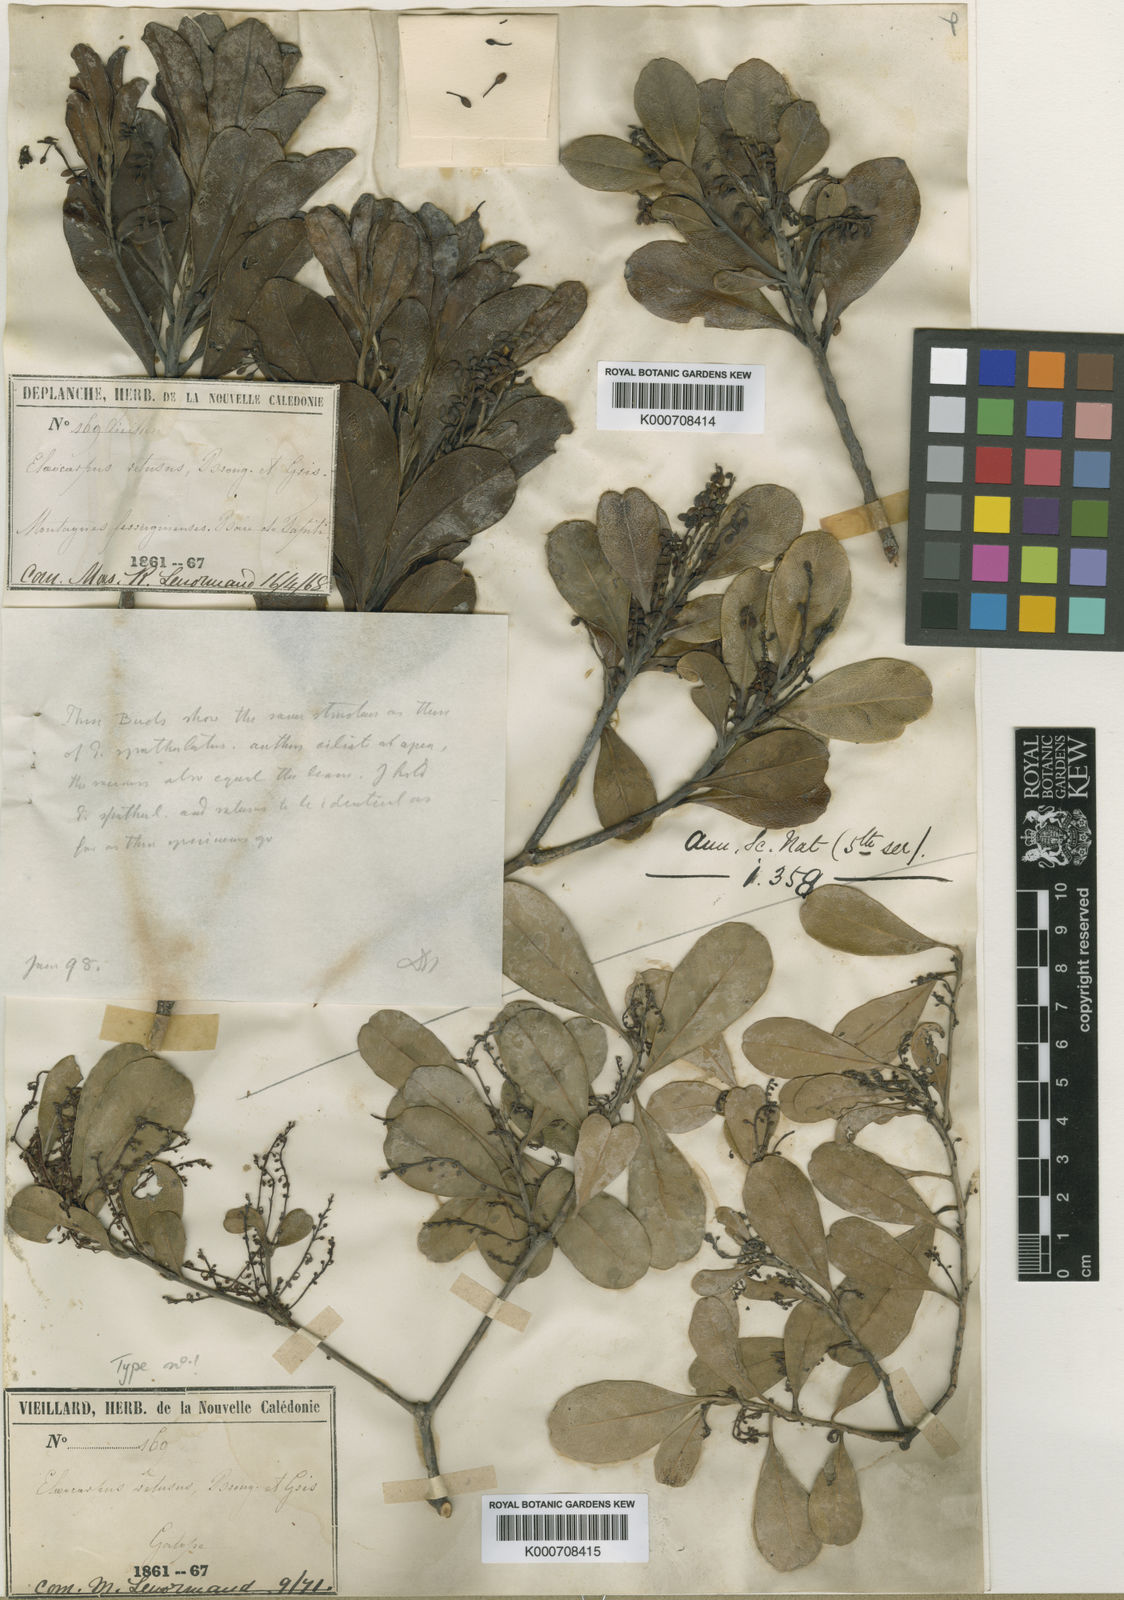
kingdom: Plantae
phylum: Tracheophyta
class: Magnoliopsida
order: Oxalidales
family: Elaeocarpaceae
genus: Elaeocarpus
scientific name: Elaeocarpus alaternoides
